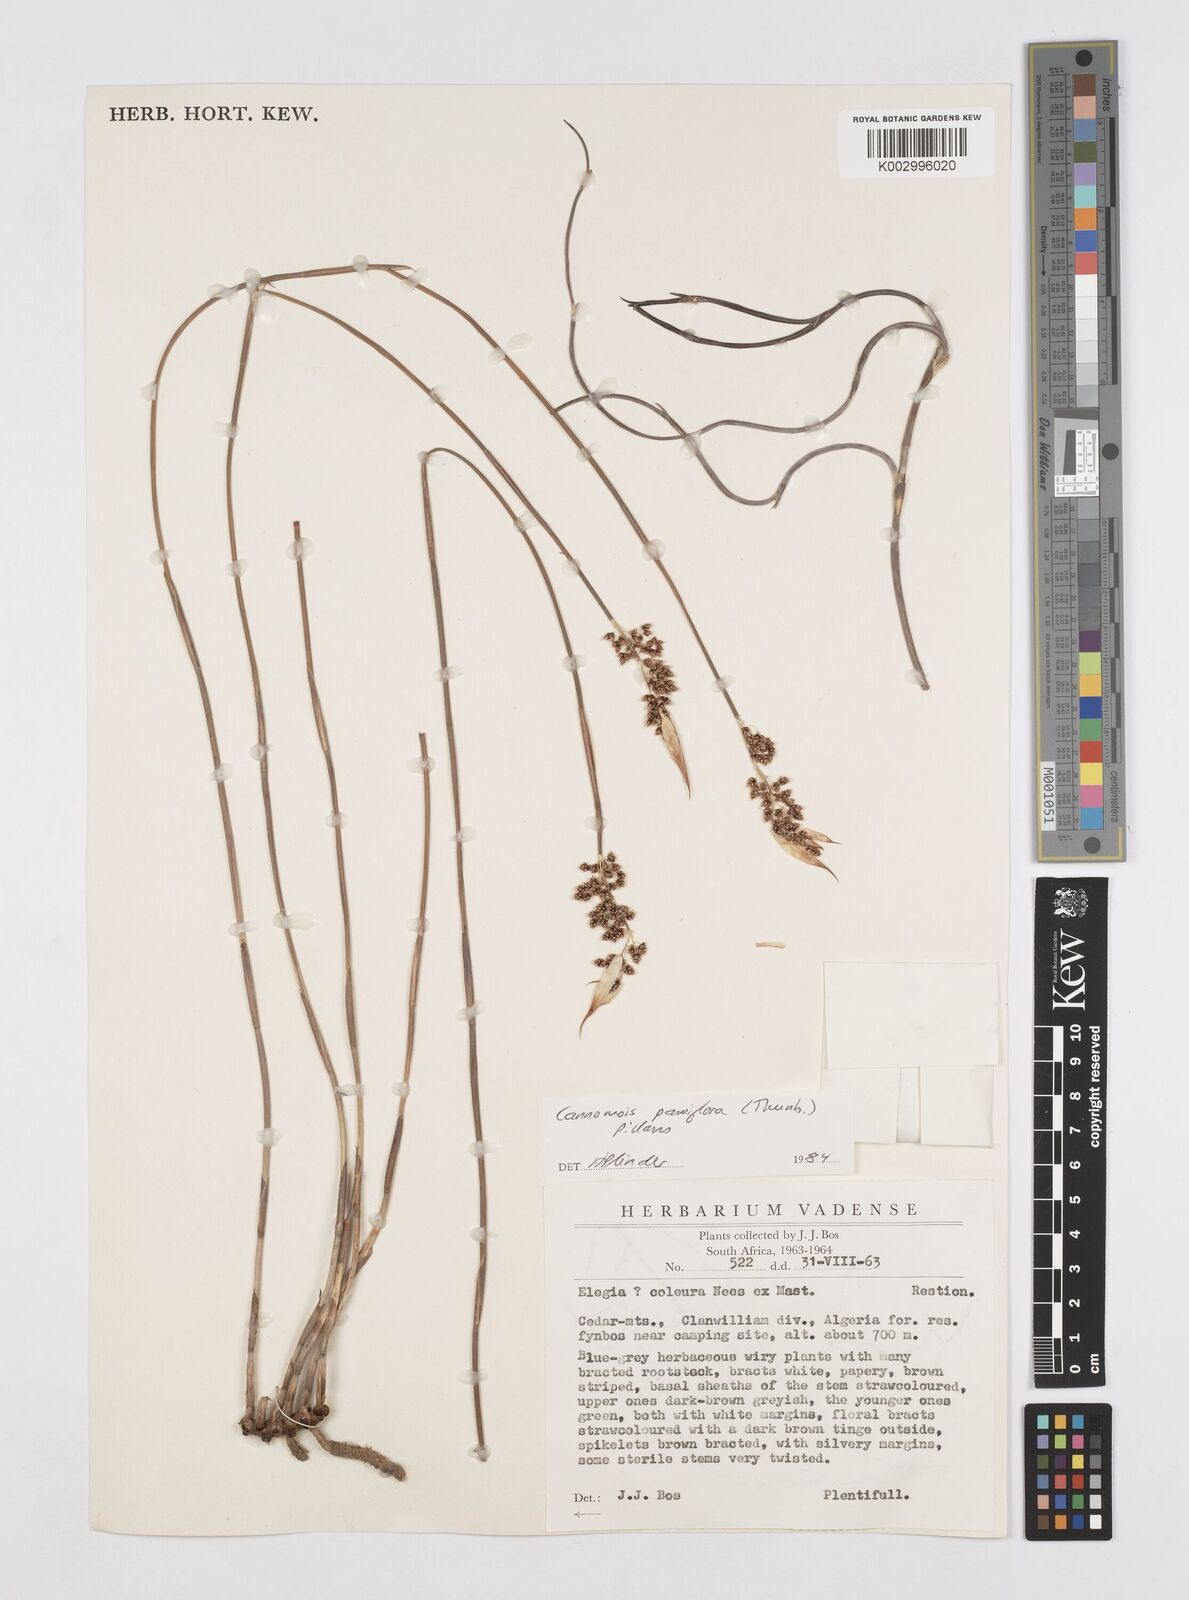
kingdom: Plantae
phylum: Tracheophyta
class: Liliopsida
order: Poales
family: Restionaceae
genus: Cannomois
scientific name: Cannomois parviflora
